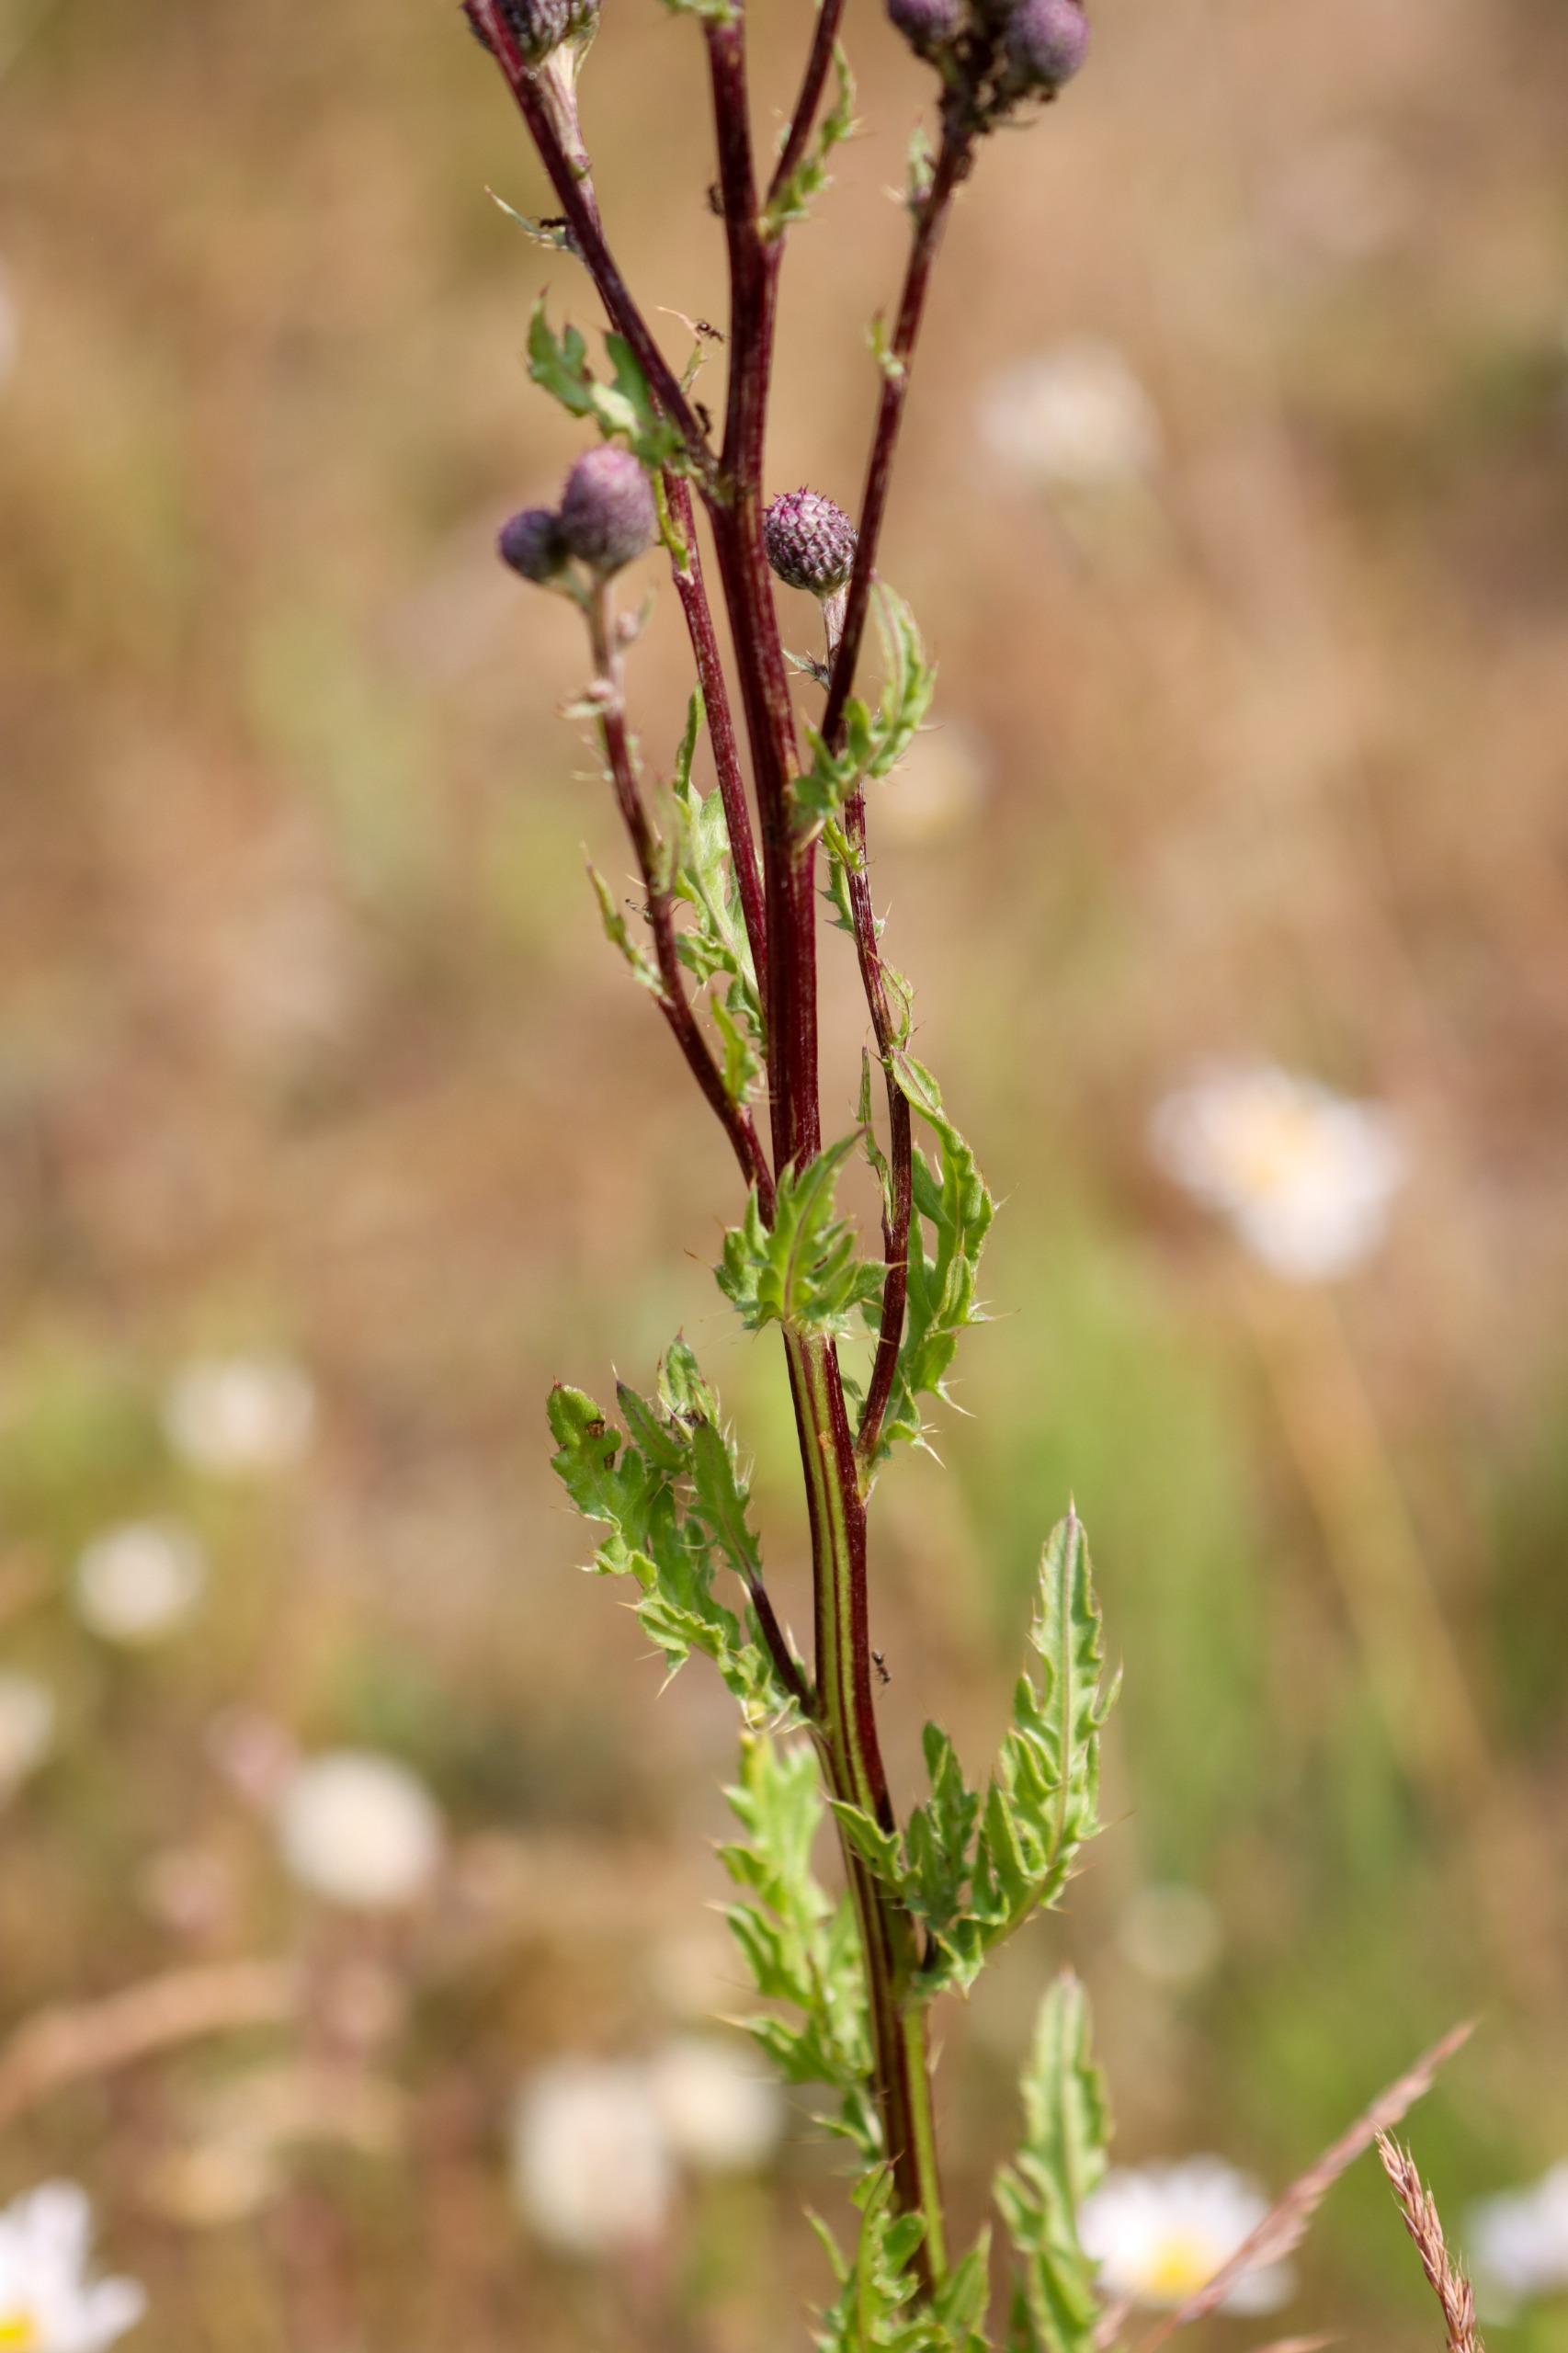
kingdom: Plantae
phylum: Tracheophyta
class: Magnoliopsida
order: Asterales
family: Asteraceae
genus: Cirsium
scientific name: Cirsium arvense
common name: Ager-tidsel
